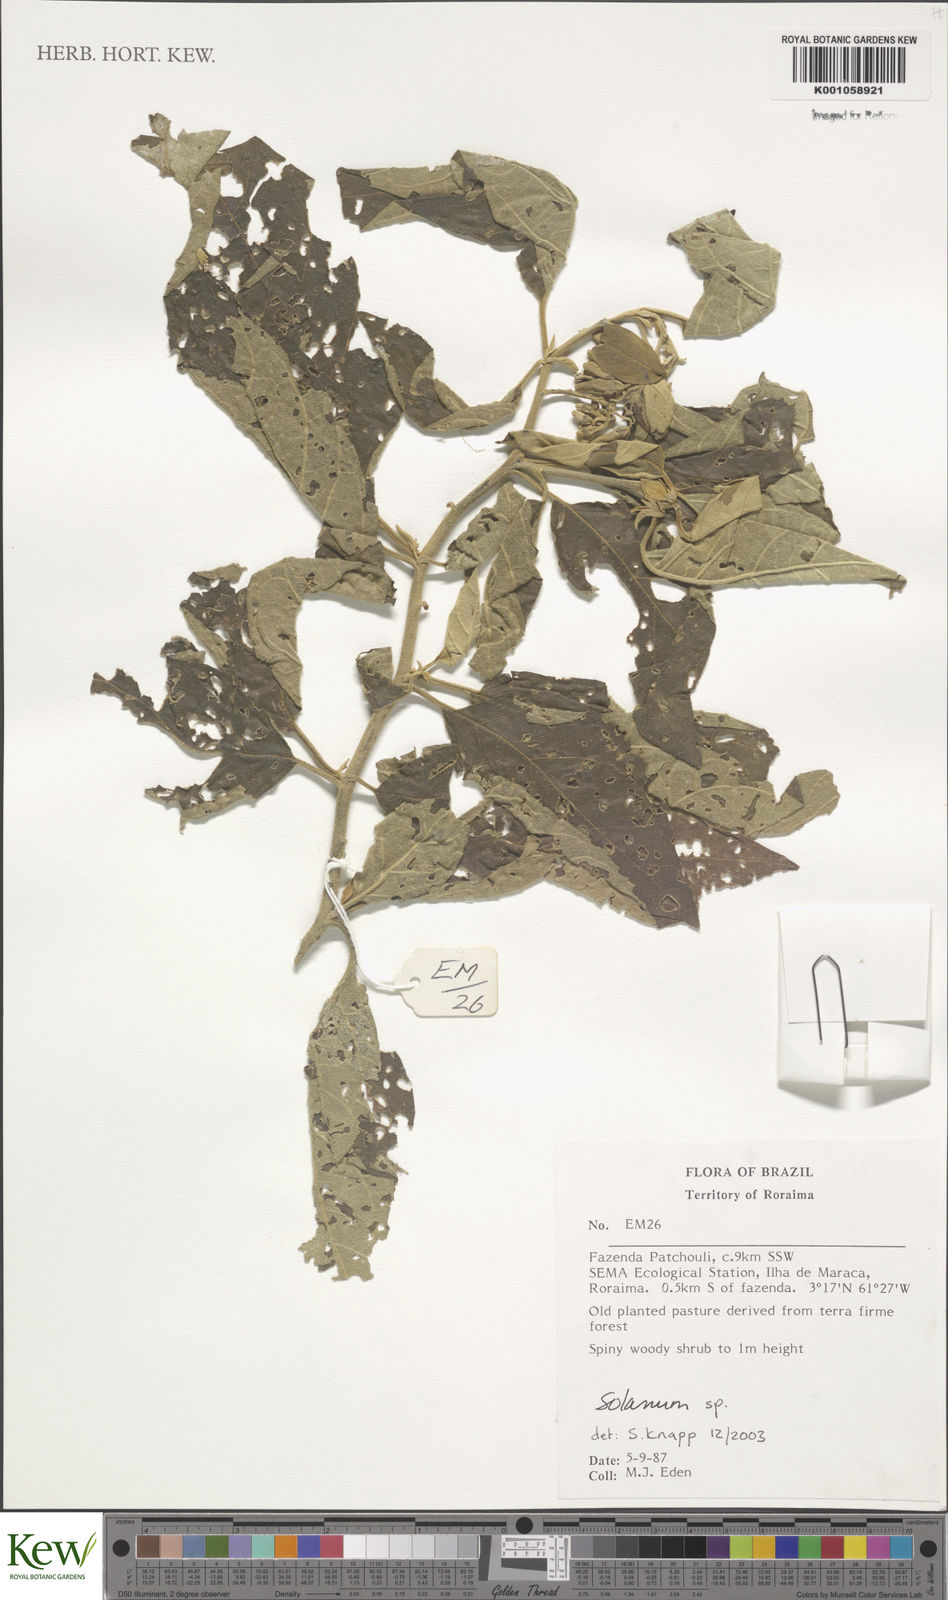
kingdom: Plantae
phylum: Tracheophyta
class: Magnoliopsida
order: Solanales
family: Solanaceae
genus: Solanum
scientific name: Solanum subinerme
